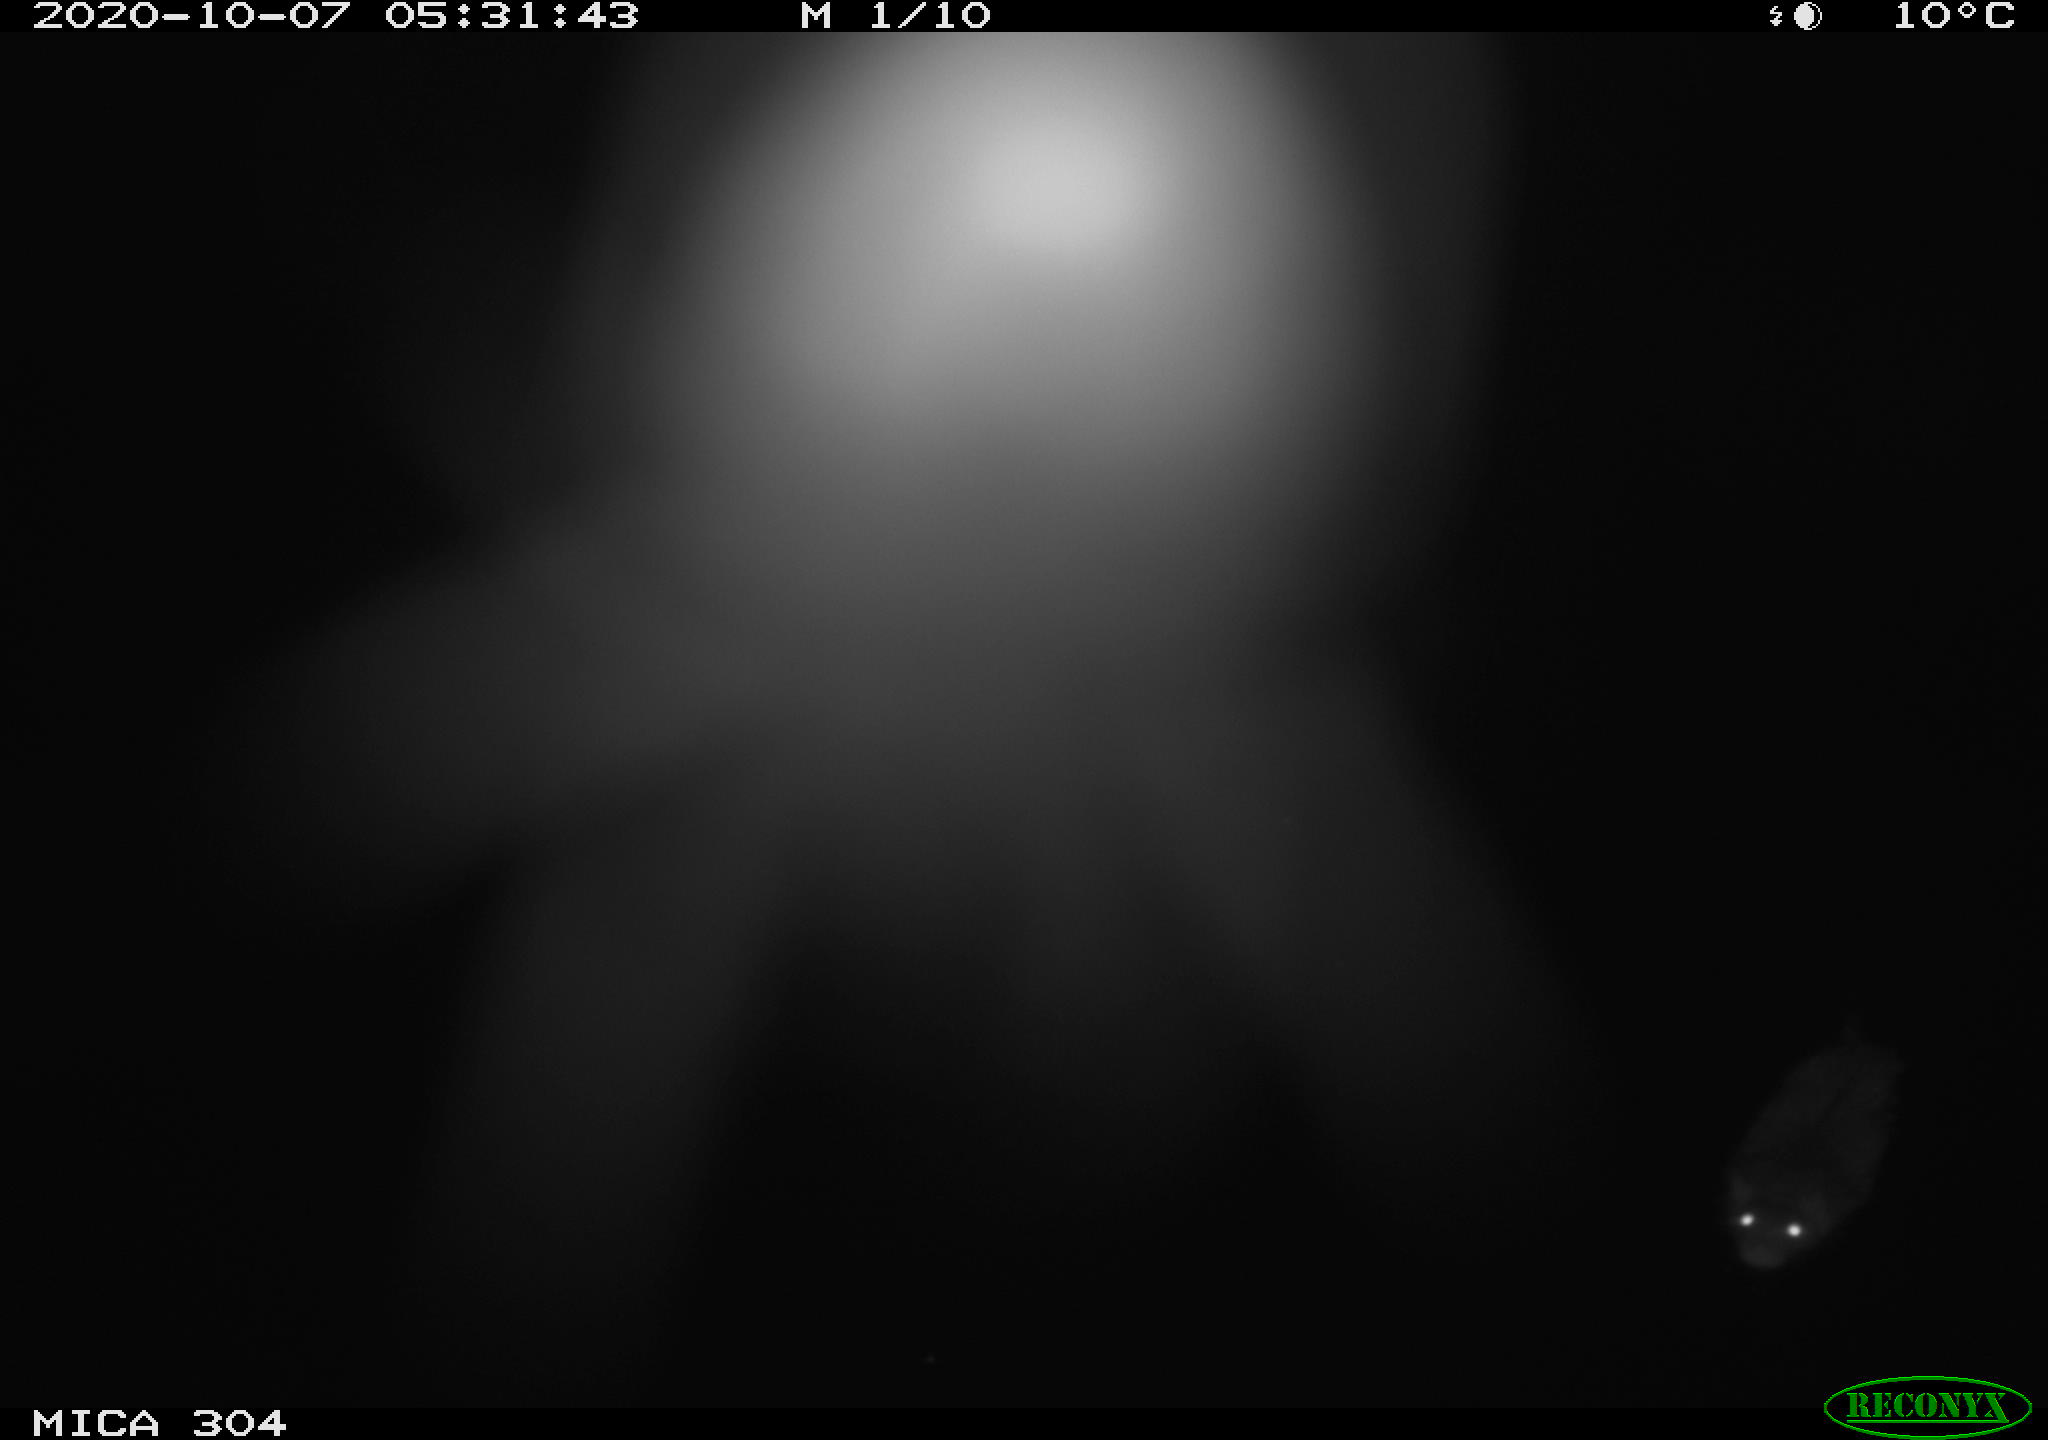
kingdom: Animalia
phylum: Chordata
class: Mammalia
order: Rodentia
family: Muridae
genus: Rattus
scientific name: Rattus norvegicus
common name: Brown rat
